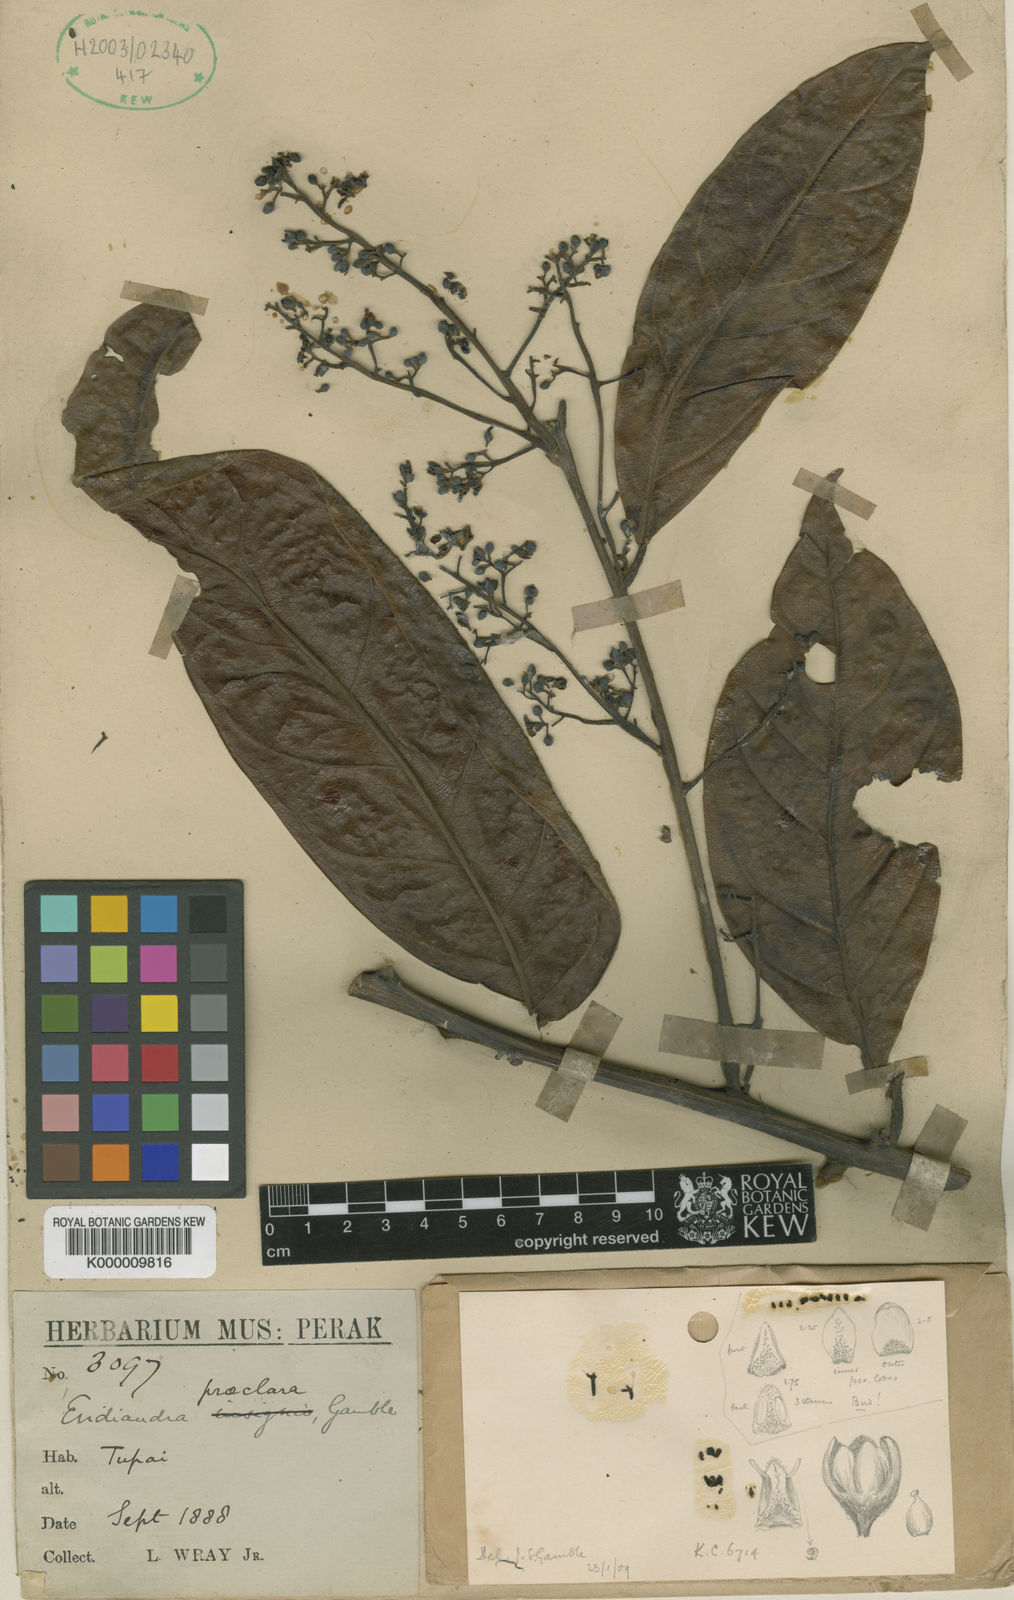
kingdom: Plantae
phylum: Tracheophyta
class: Magnoliopsida
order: Laurales
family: Lauraceae
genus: Endiandra
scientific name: Endiandra praeclara
